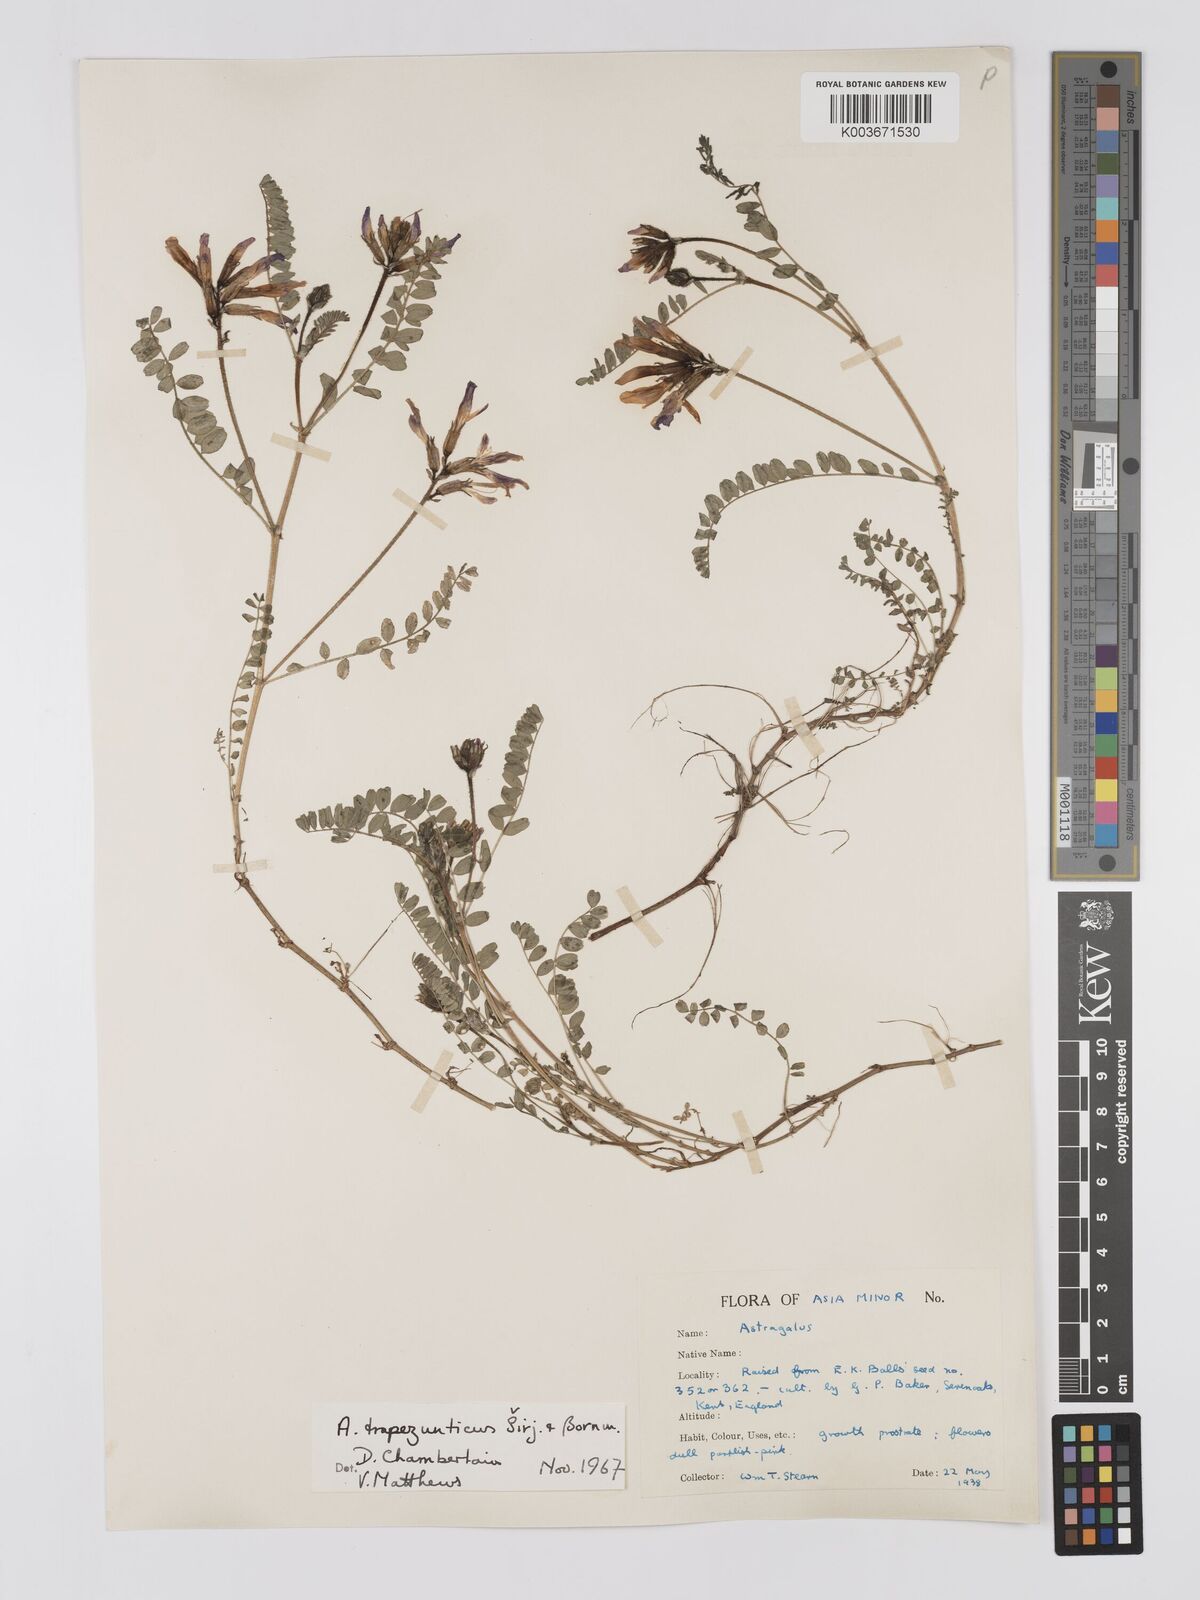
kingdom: Plantae
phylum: Tracheophyta
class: Magnoliopsida
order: Fabales
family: Fabaceae
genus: Astragalus
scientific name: Astragalus viridissimus
